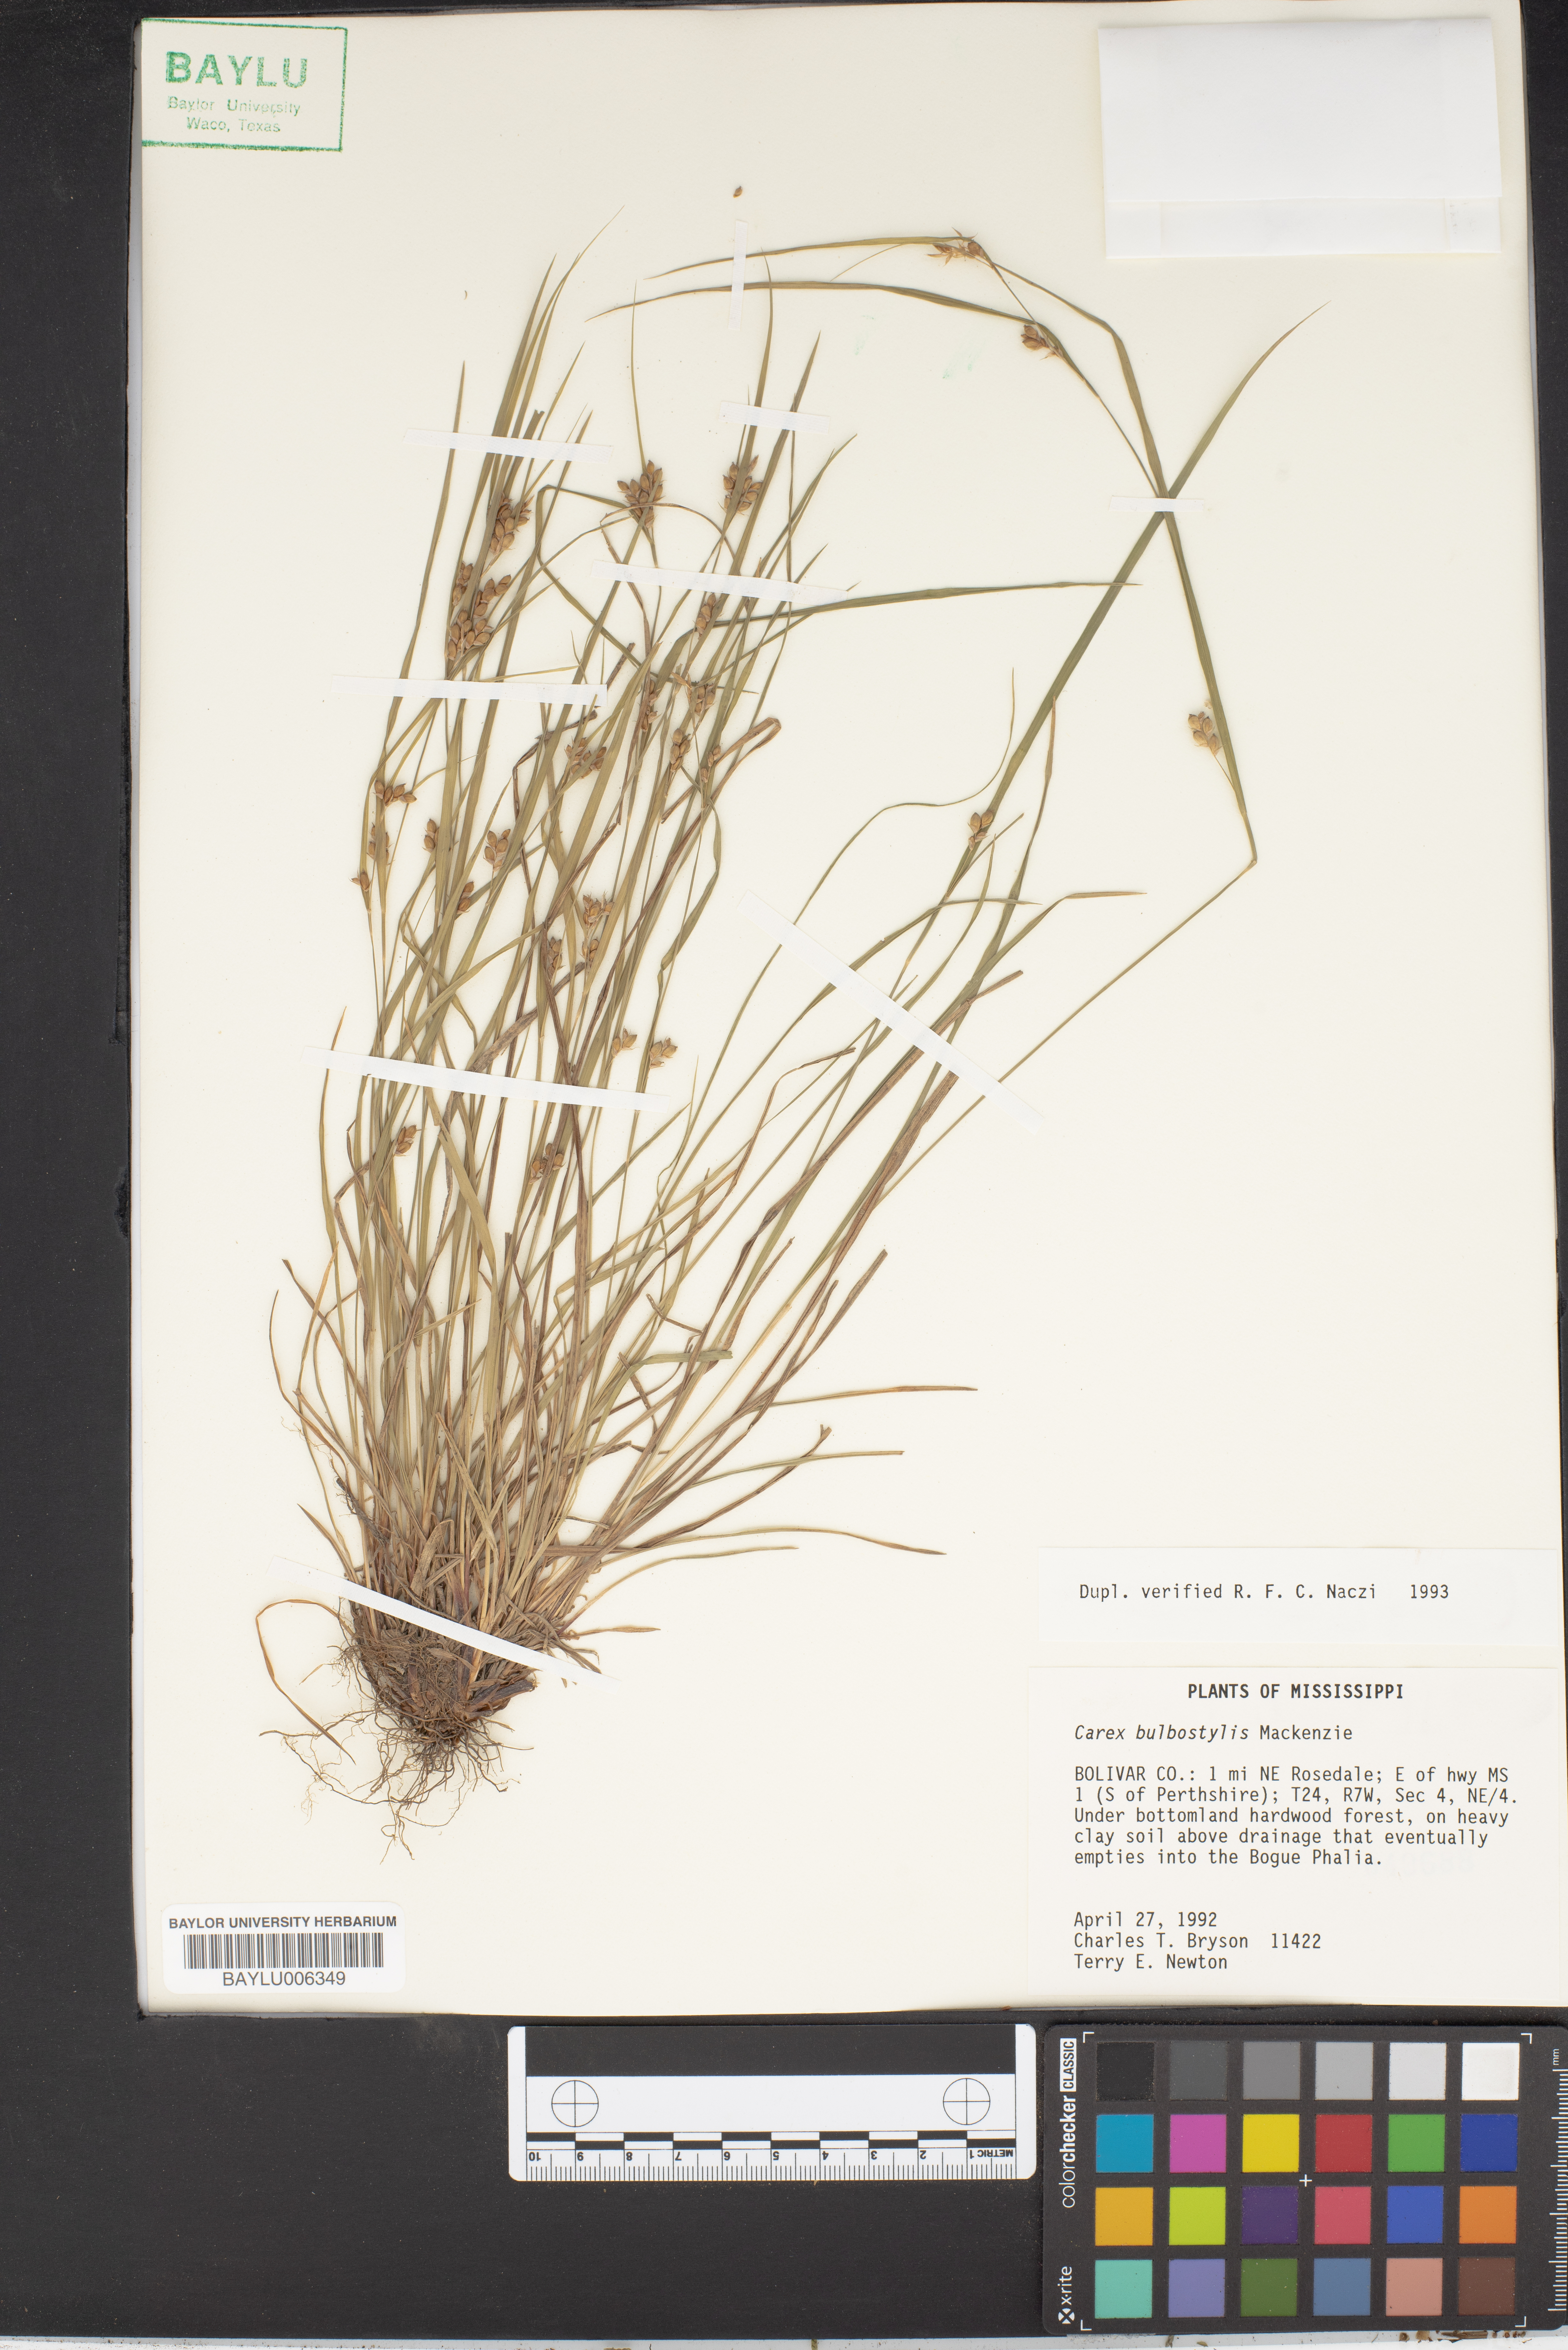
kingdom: Plantae
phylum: Tracheophyta
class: Liliopsida
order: Poales
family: Cyperaceae
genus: Carex
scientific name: Carex bulbostylis
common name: Eastern narrowleaf sedge
